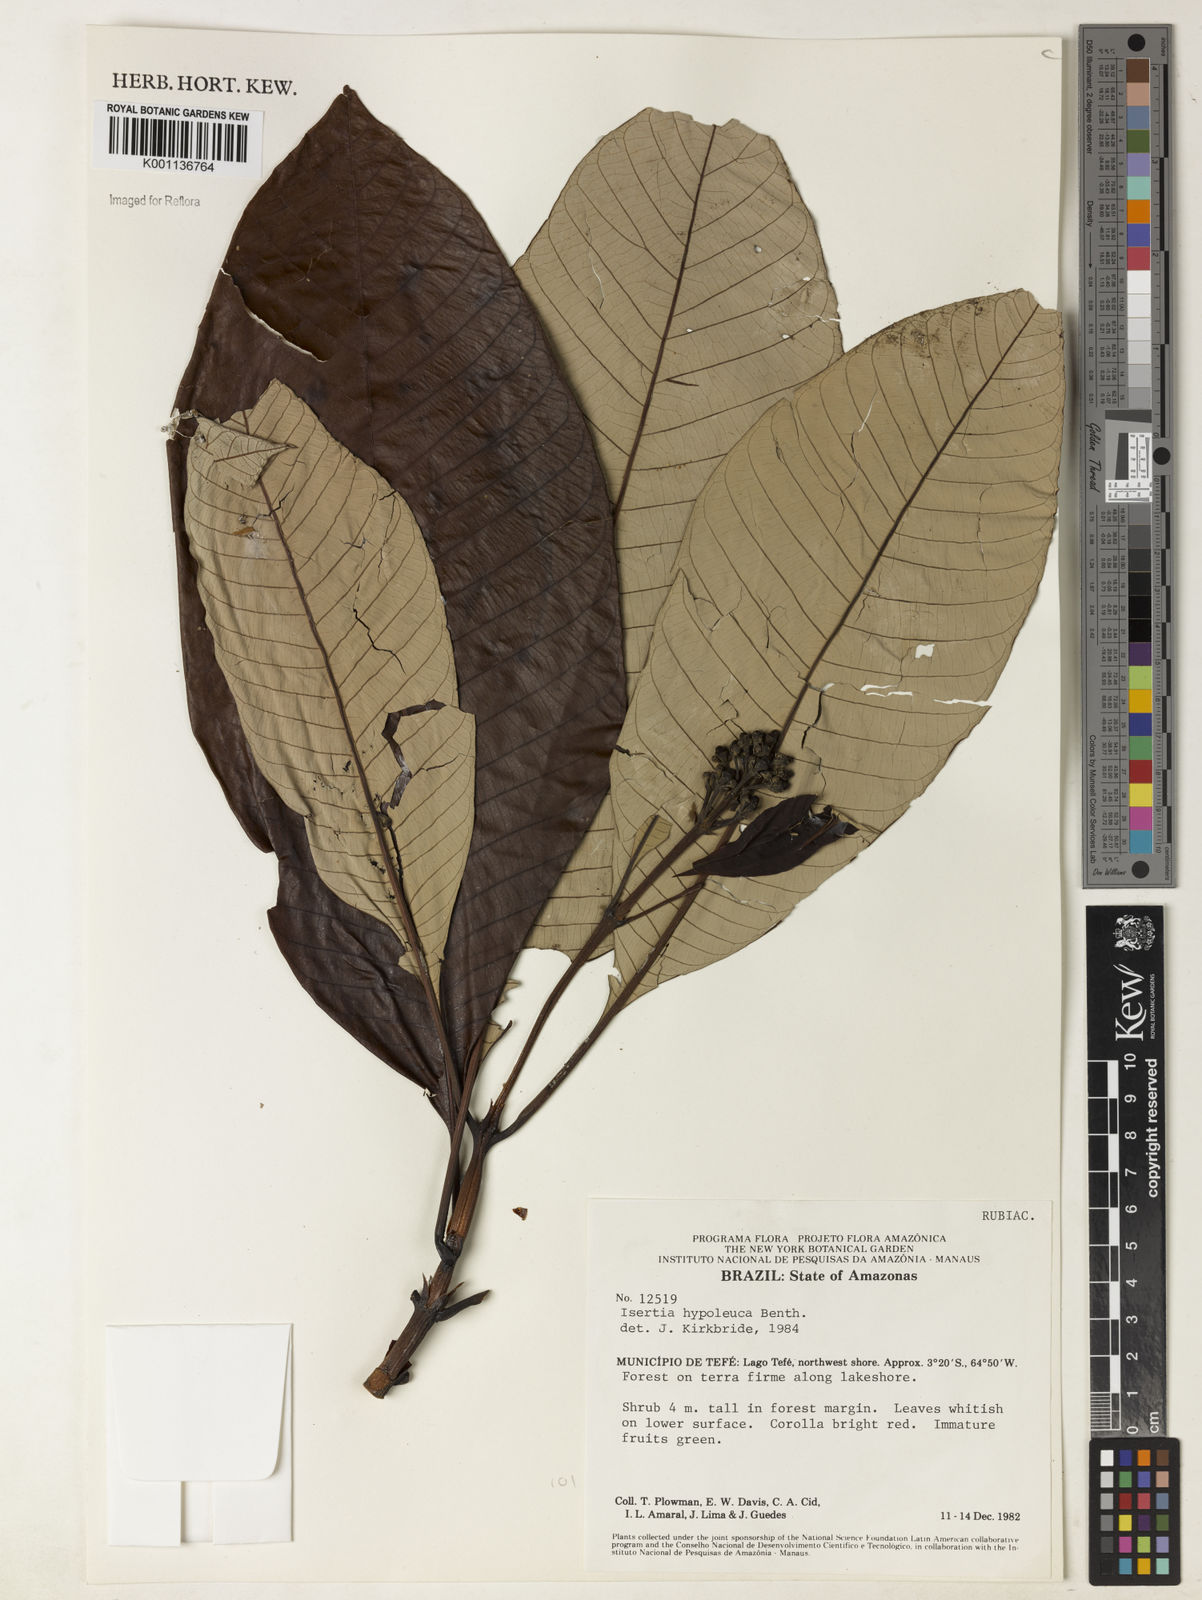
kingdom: Plantae
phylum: Tracheophyta
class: Magnoliopsida
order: Gentianales
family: Rubiaceae
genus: Isertia
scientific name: Isertia hypoleuca
